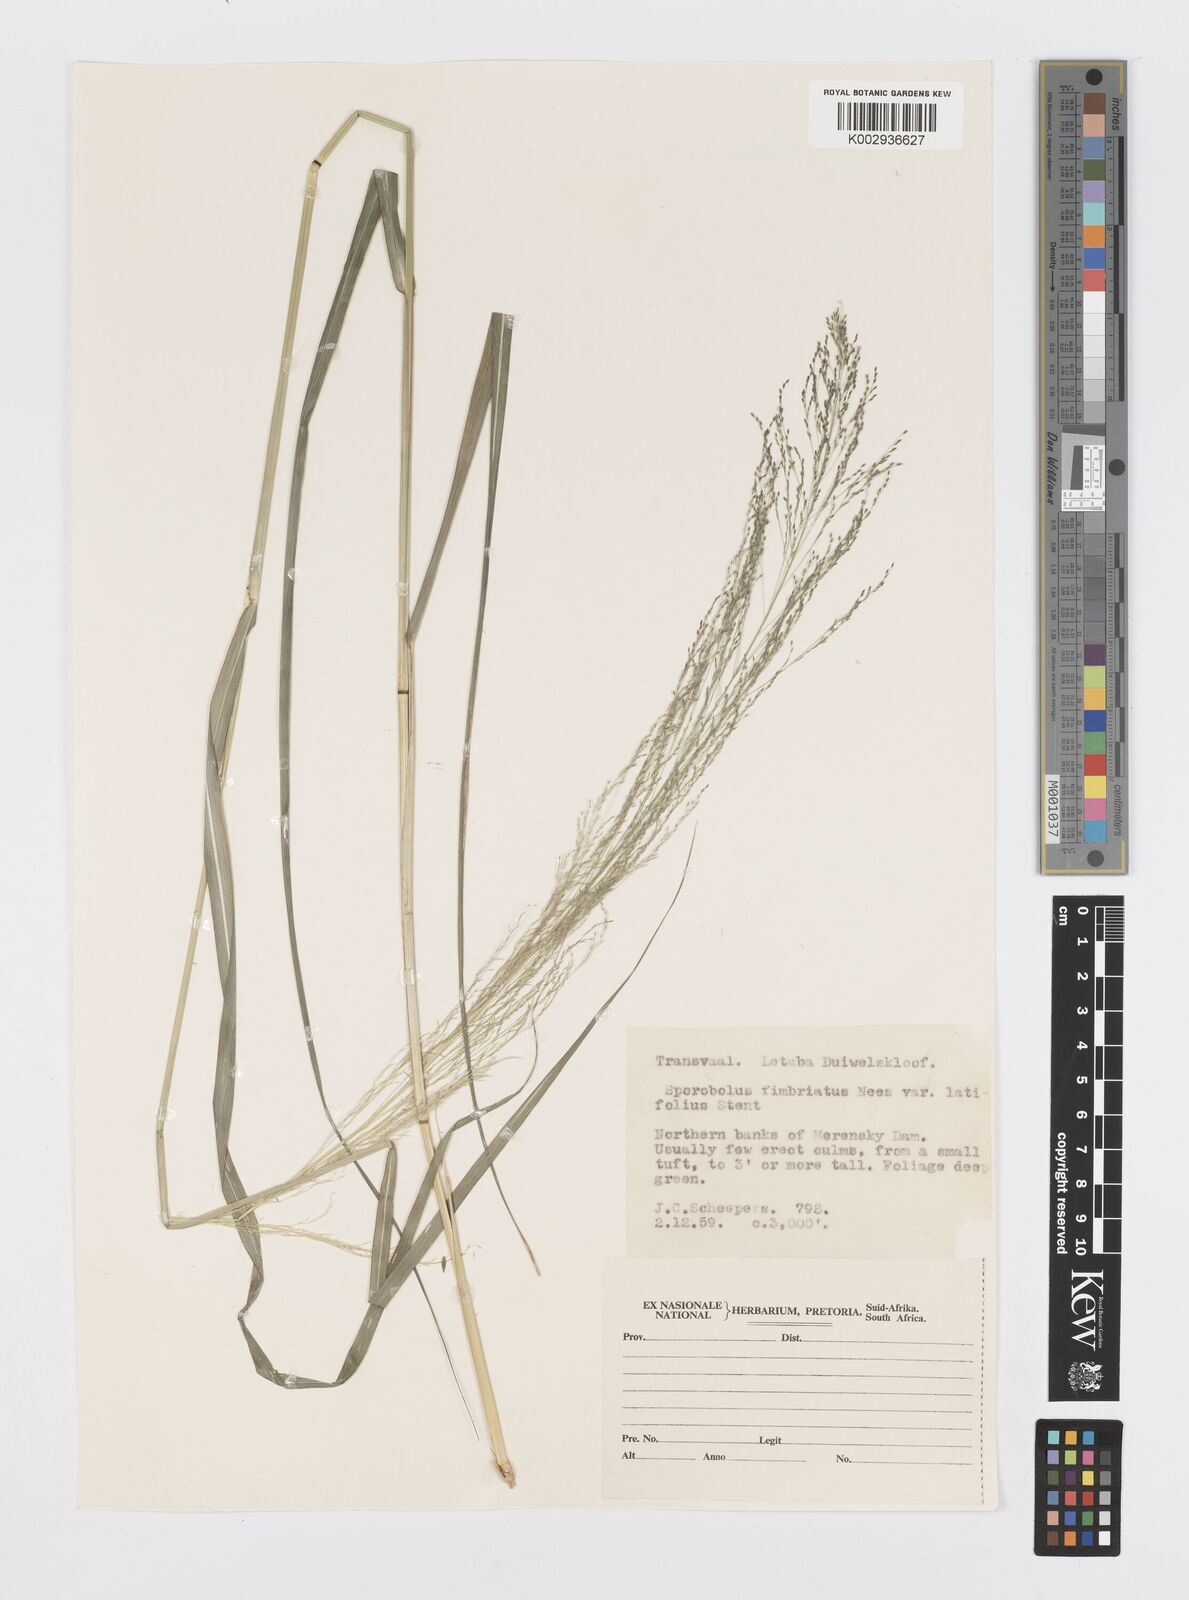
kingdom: Plantae
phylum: Tracheophyta
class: Liliopsida
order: Poales
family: Poaceae
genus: Sporobolus
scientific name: Sporobolus fimbriatus
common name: Fringed dropseed
